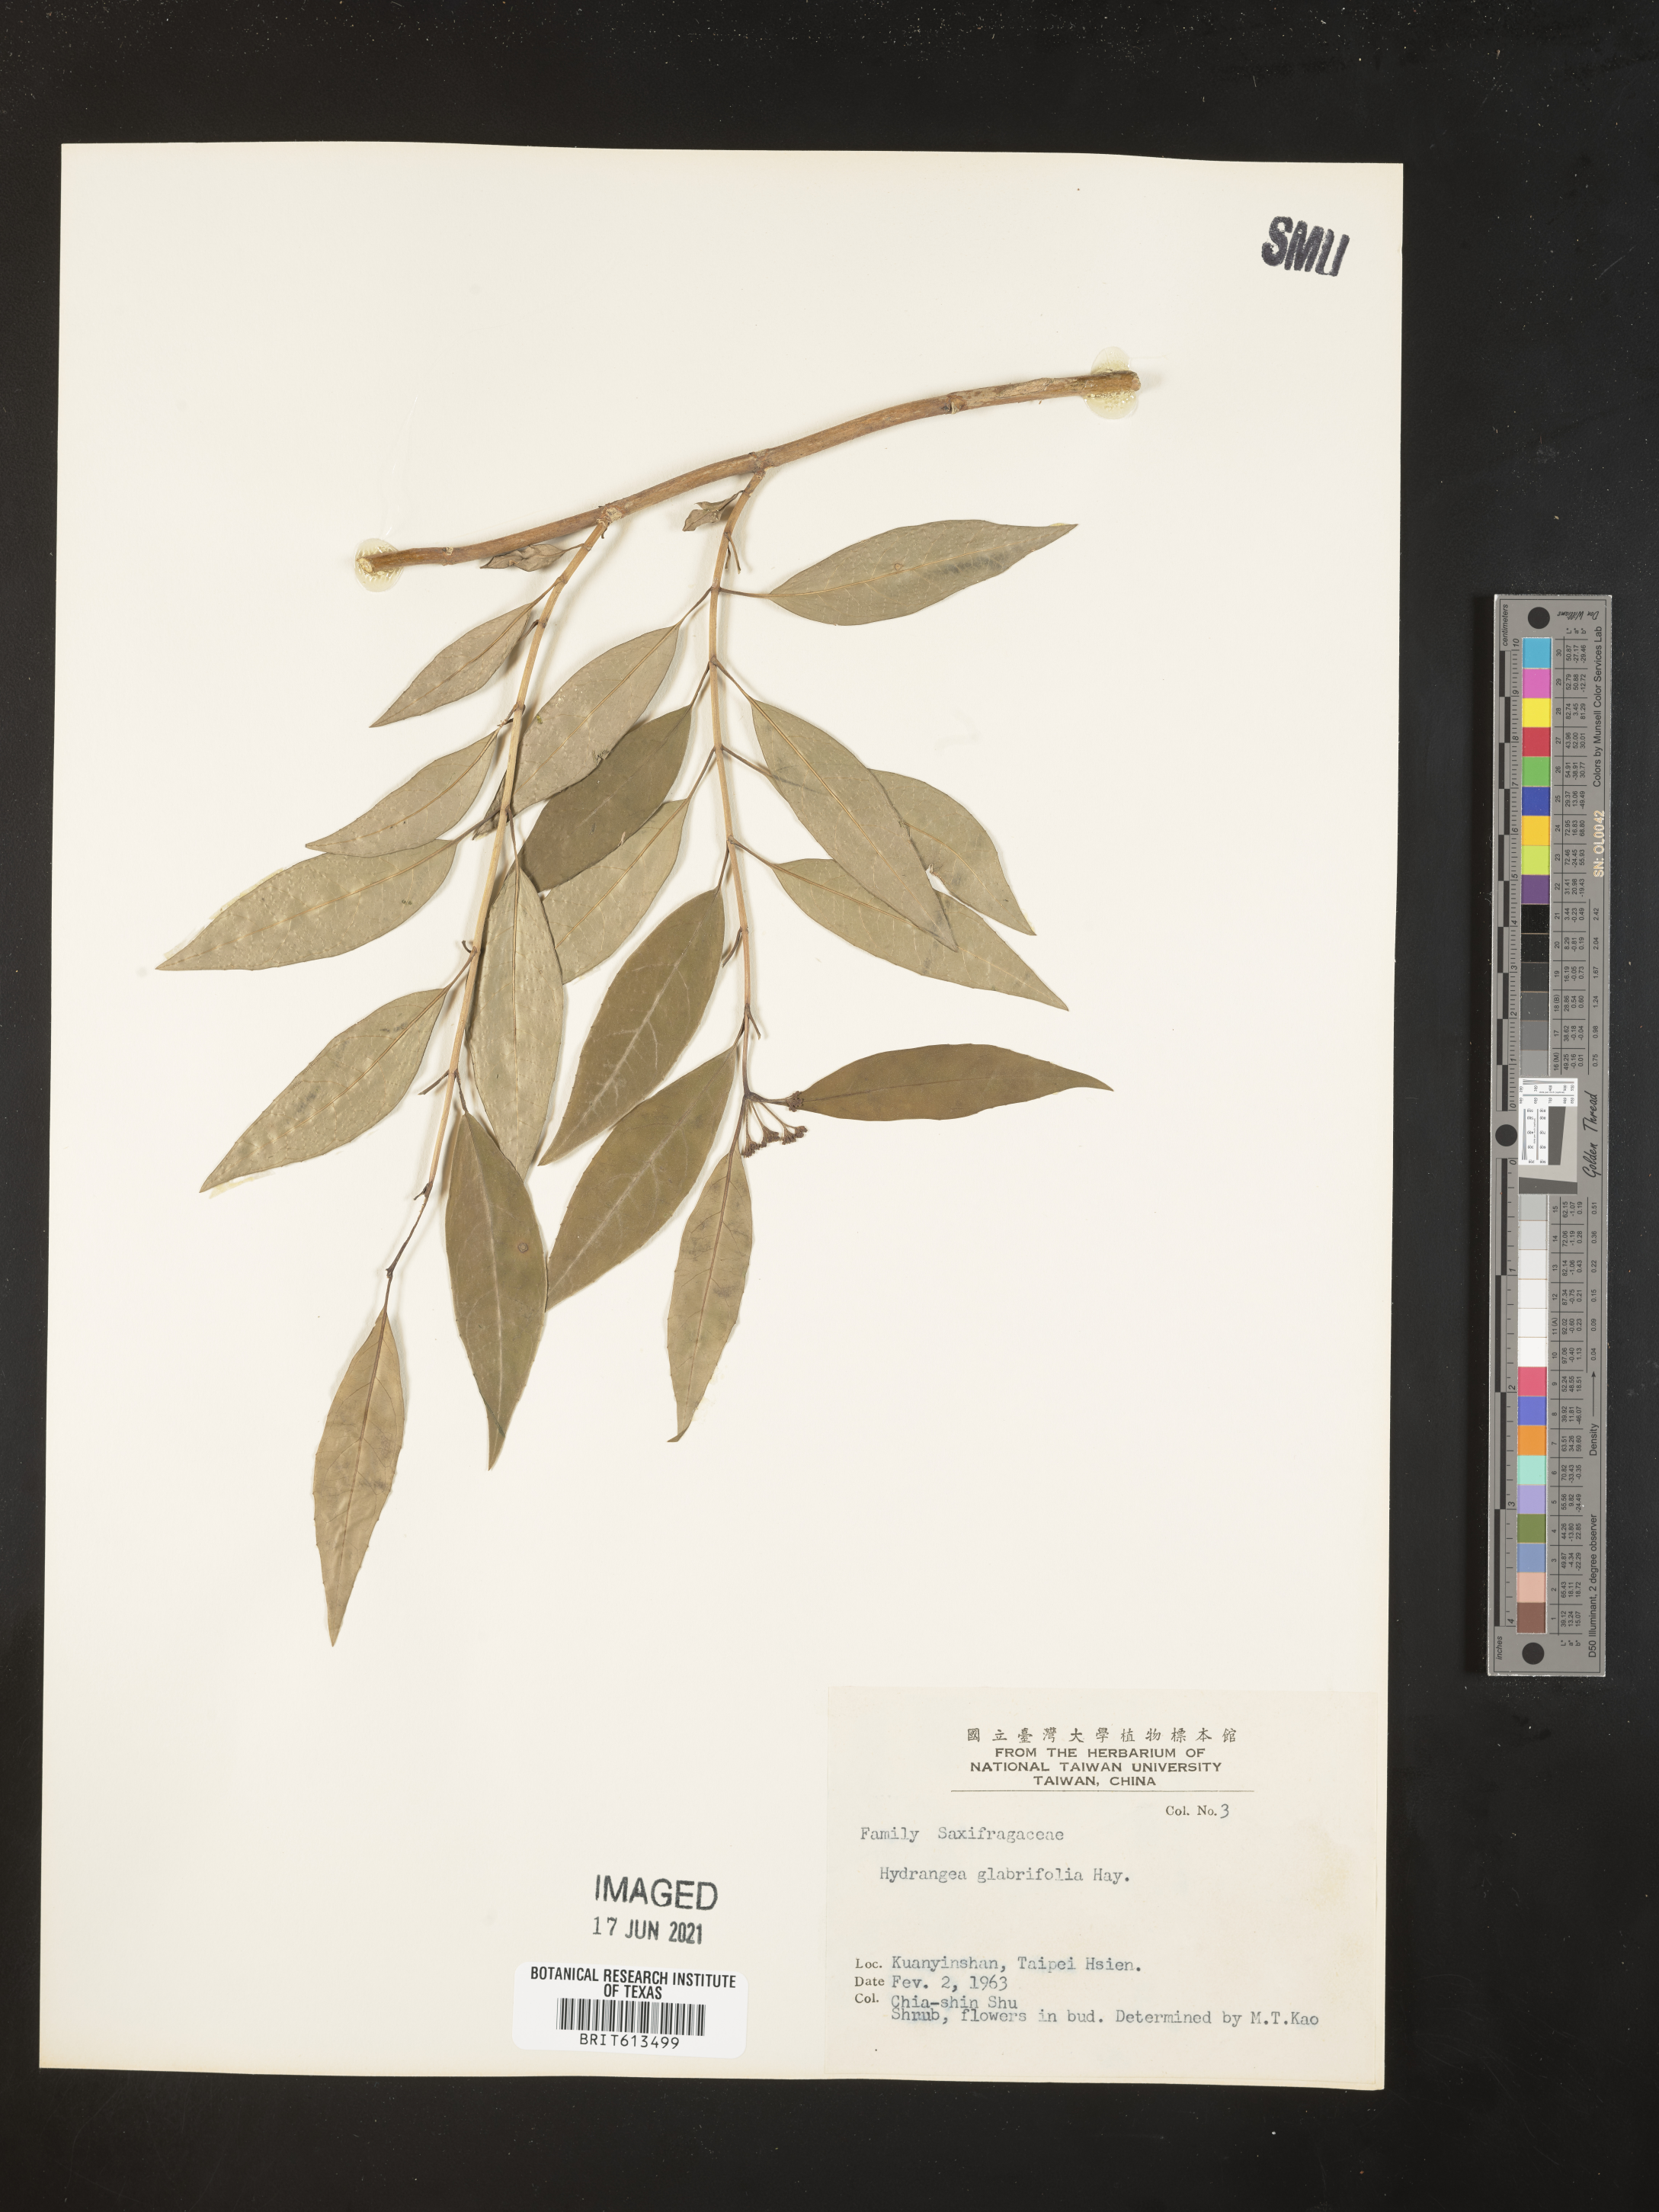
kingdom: Plantae
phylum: Tracheophyta
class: Magnoliopsida
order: Cornales
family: Hydrangeaceae
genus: Hydrangea
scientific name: Hydrangea chinensis
